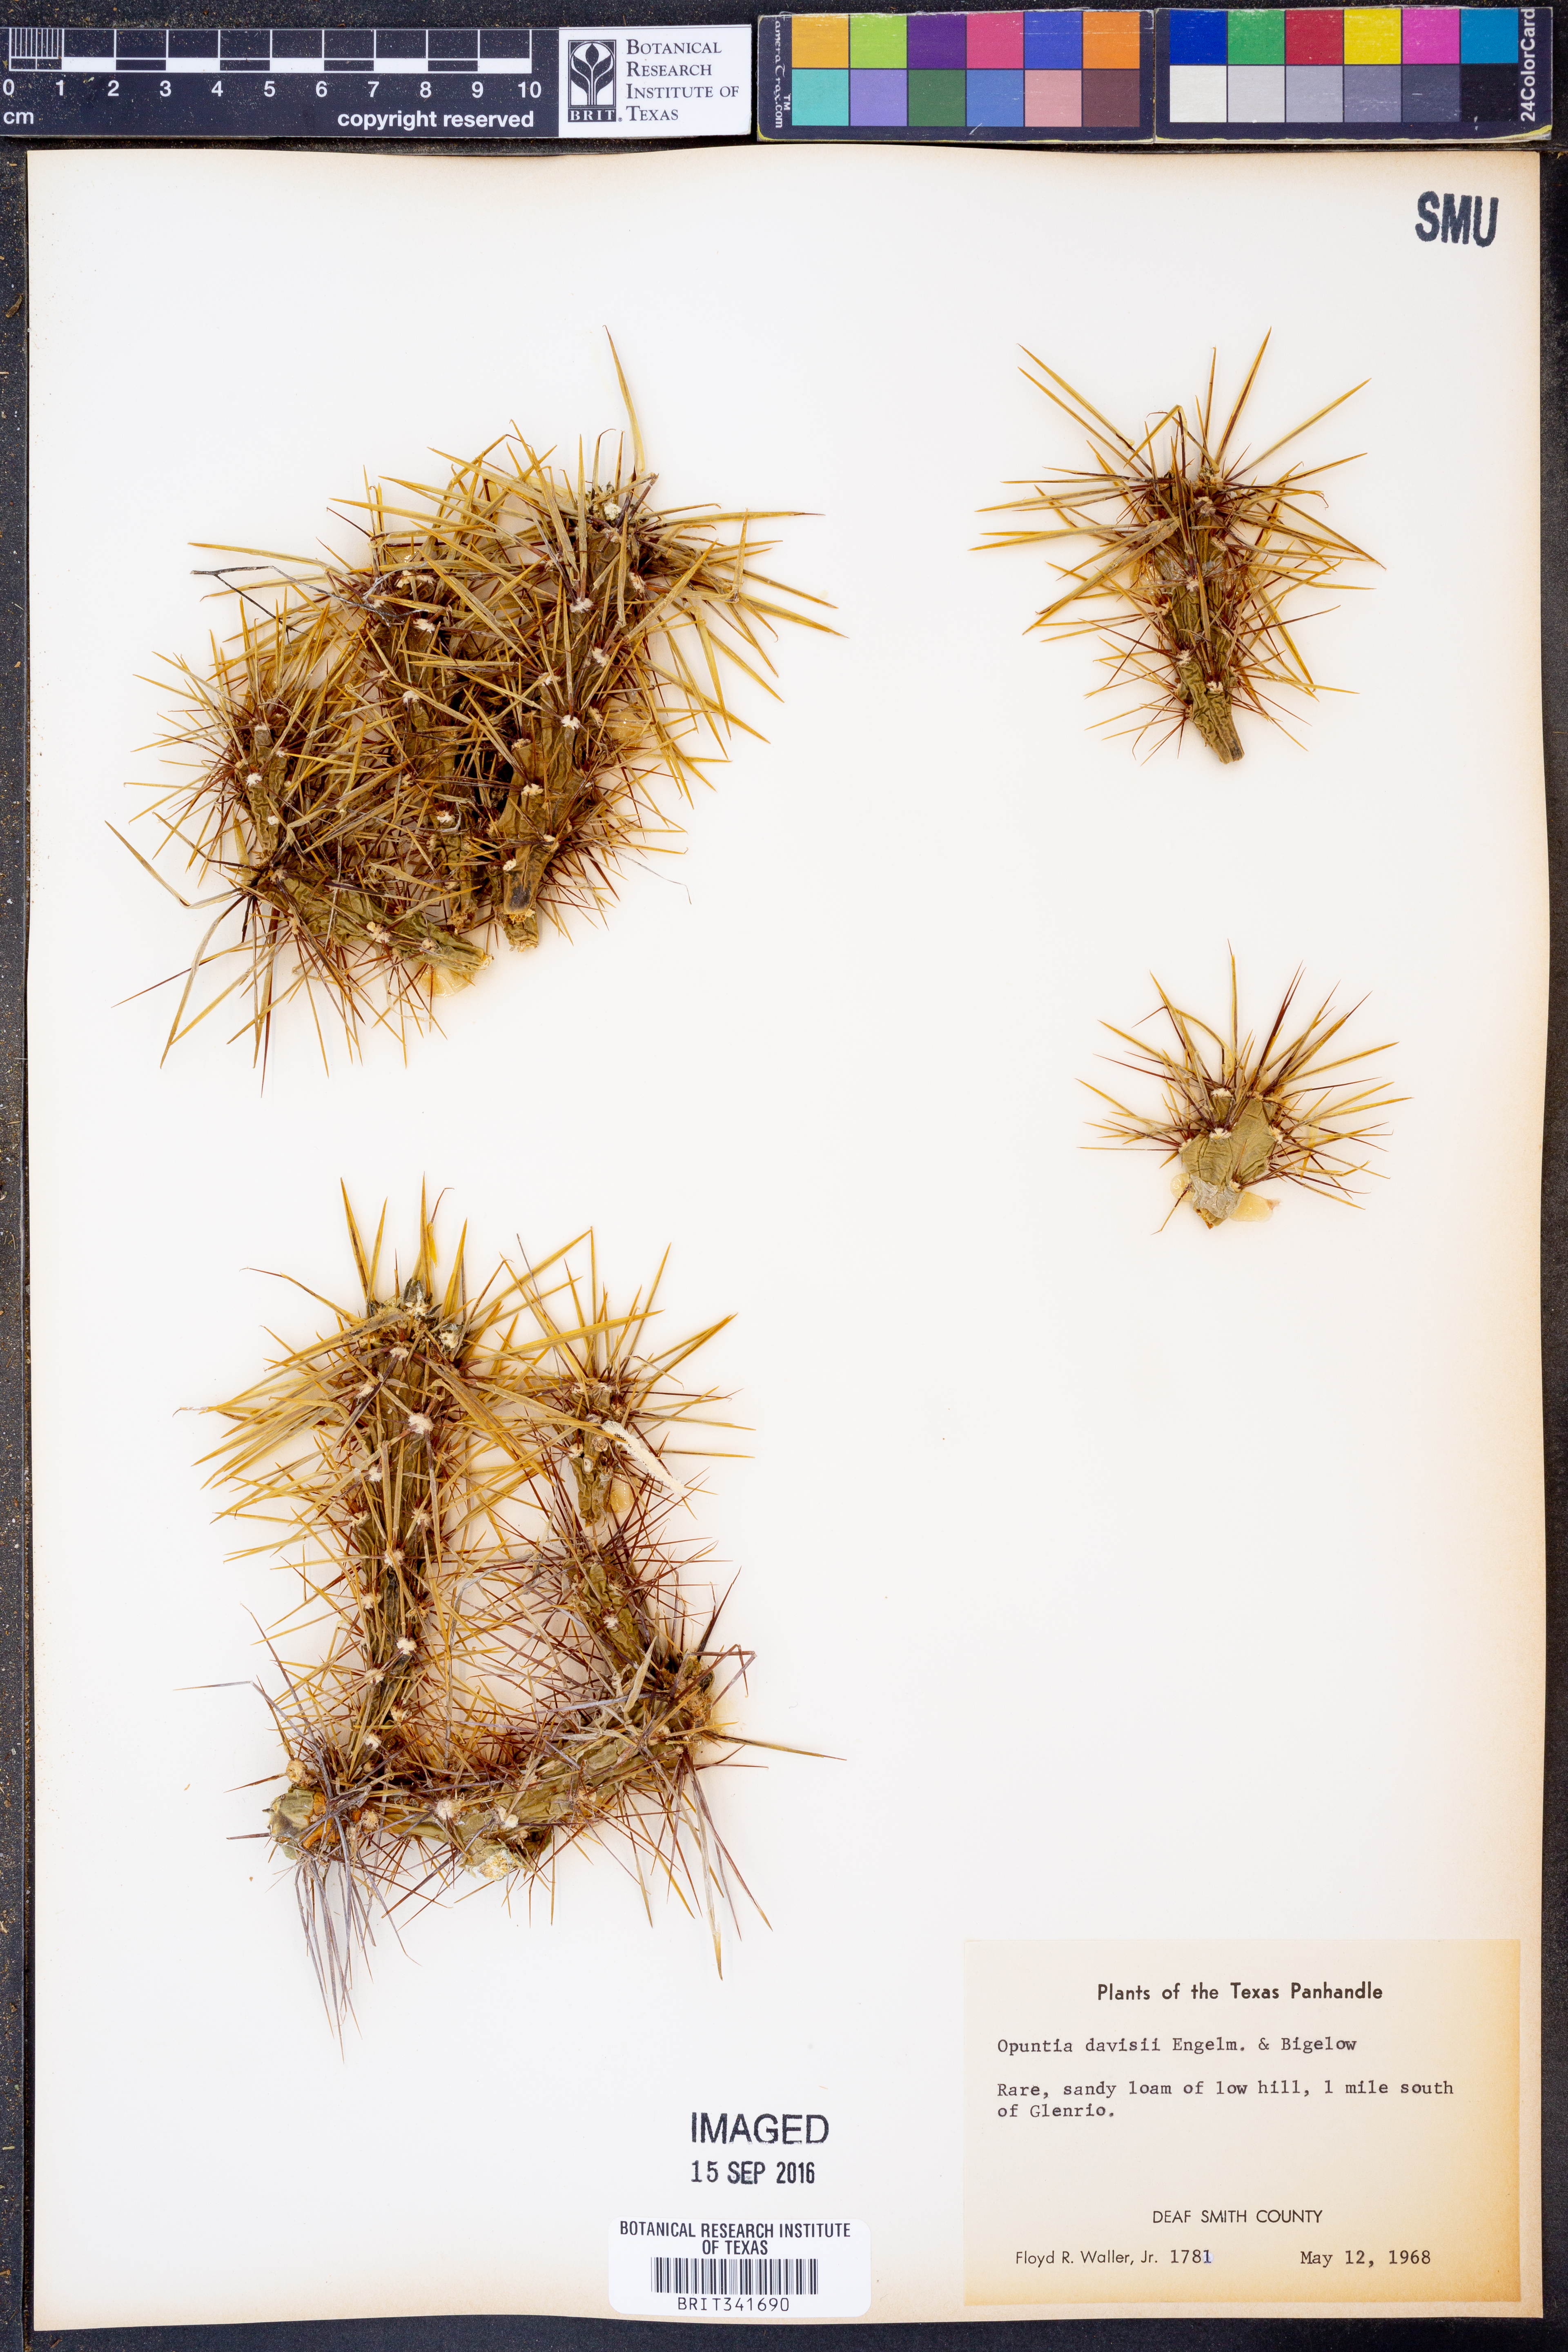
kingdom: Plantae
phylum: Tracheophyta
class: Magnoliopsida
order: Caryophyllales
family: Cactaceae
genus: Cylindropuntia
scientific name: Cylindropuntia davisii
